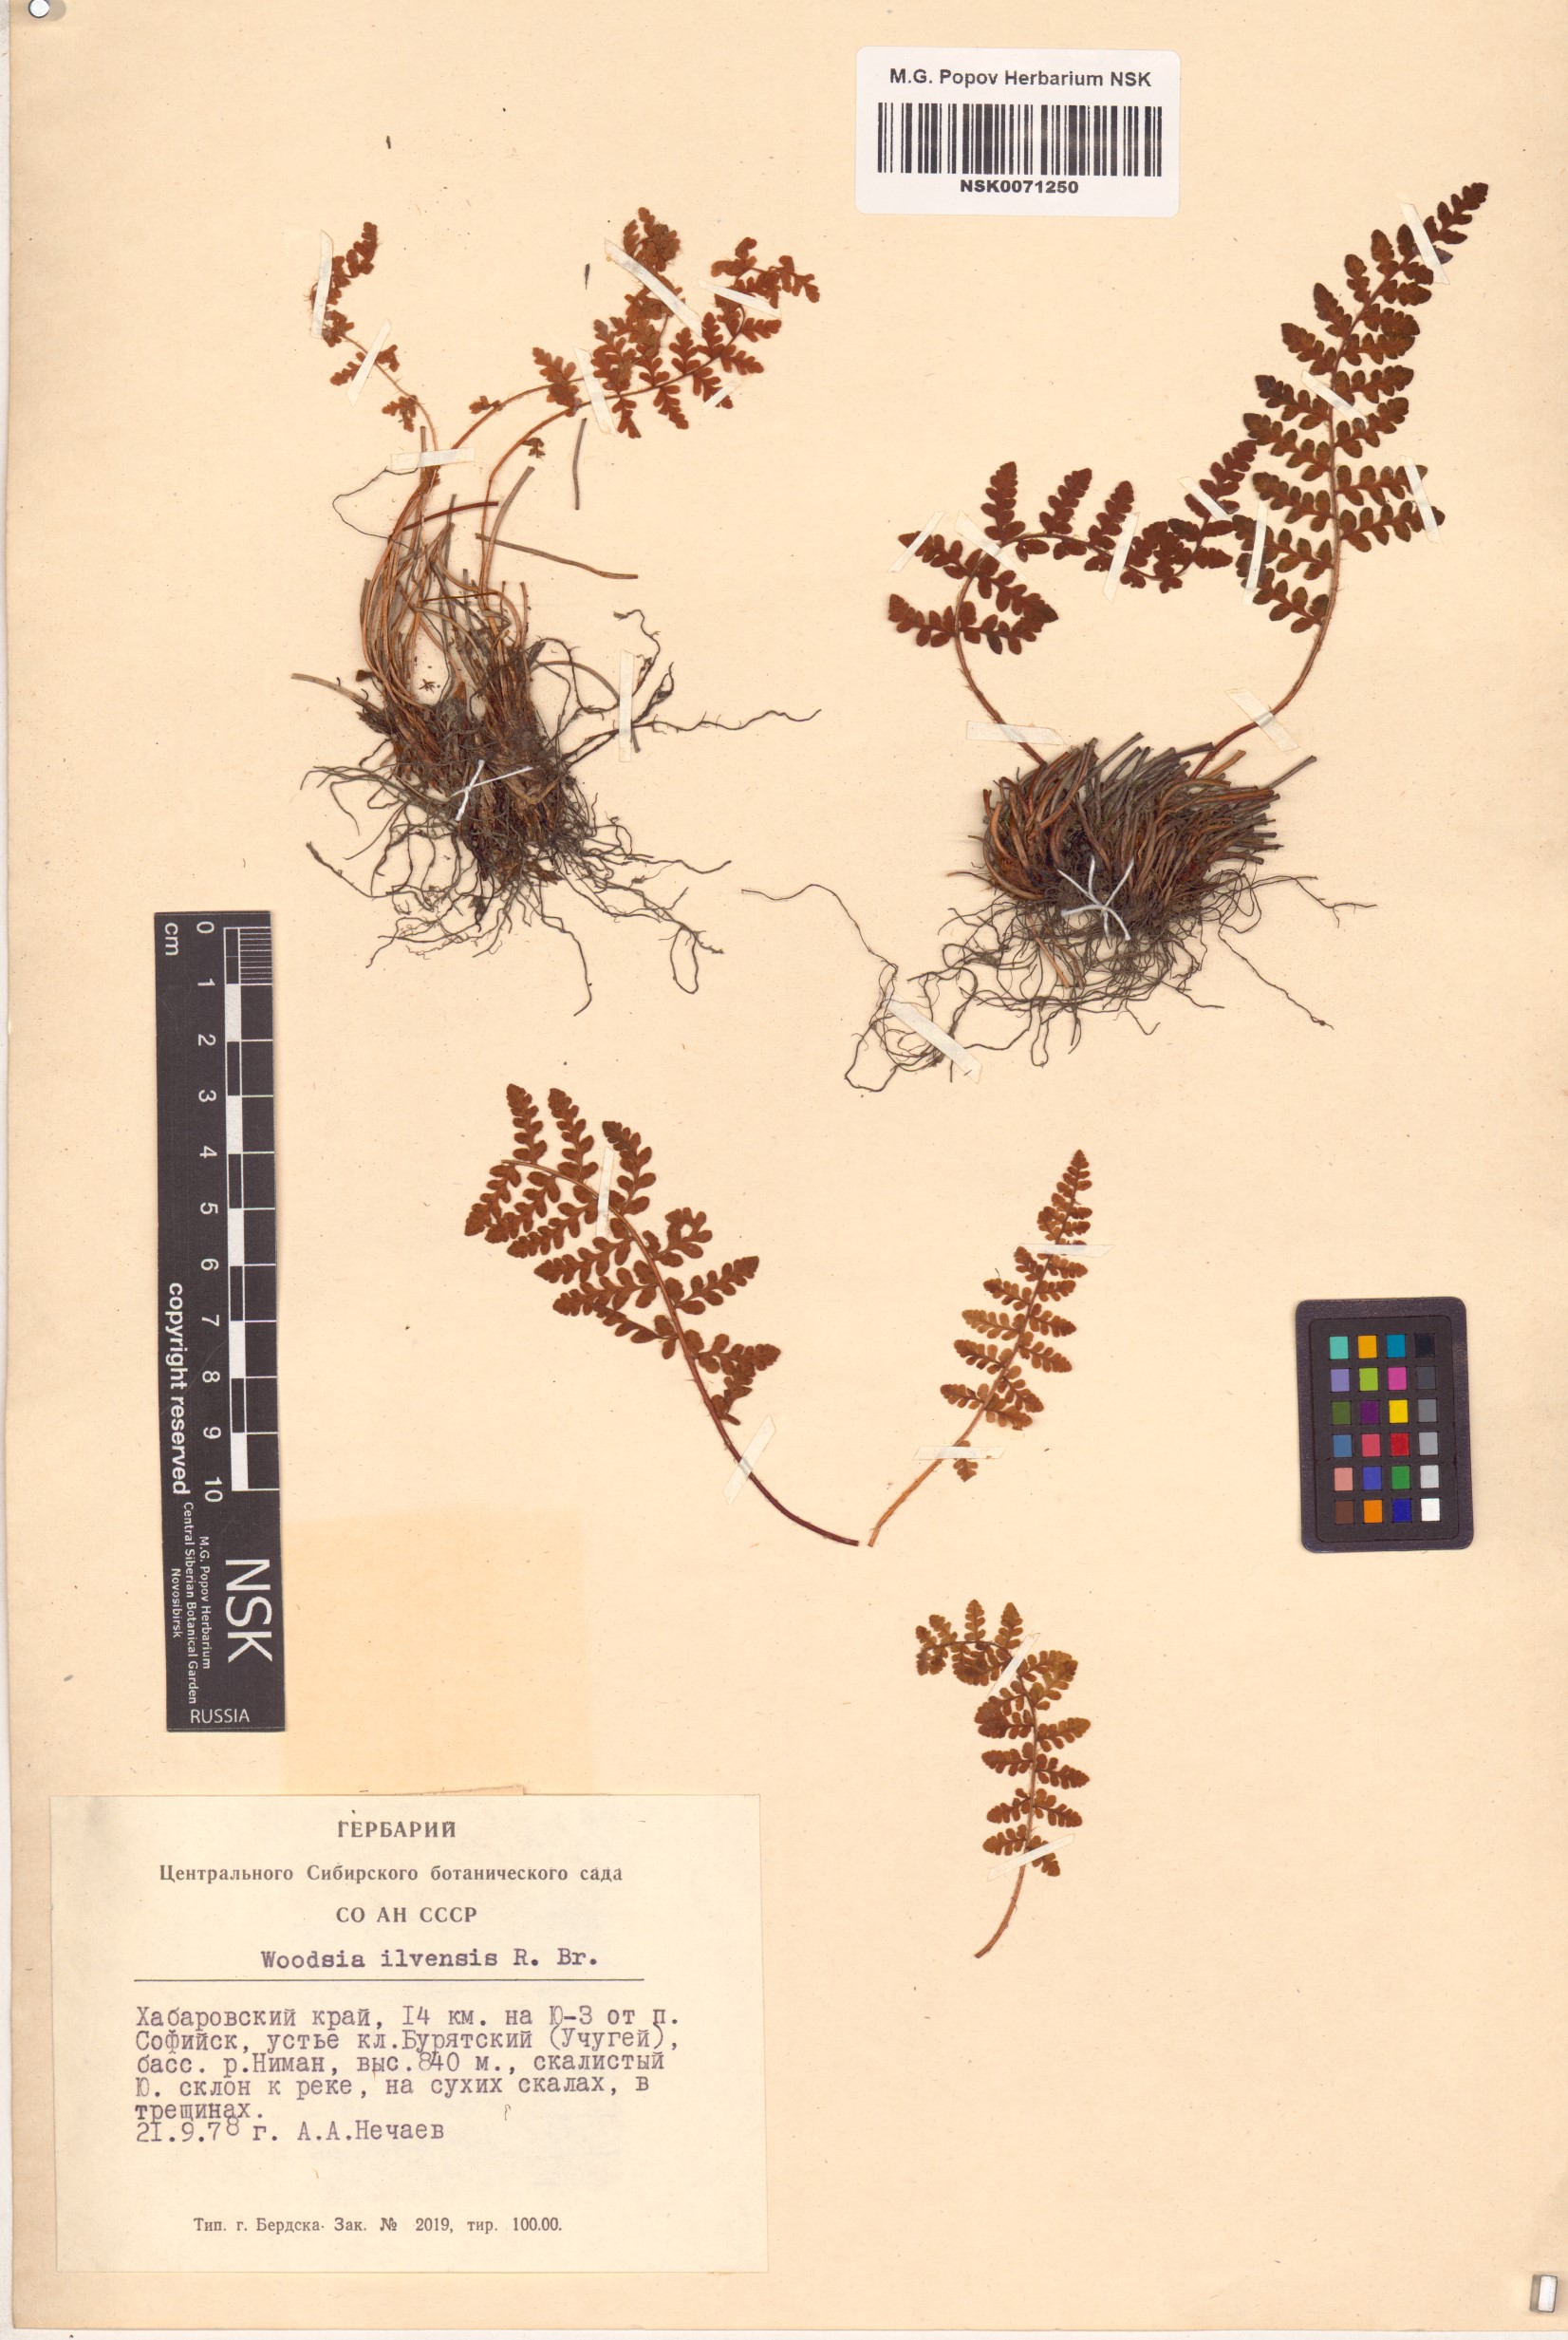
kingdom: Plantae
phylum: Tracheophyta
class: Polypodiopsida
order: Polypodiales
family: Woodsiaceae
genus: Woodsia
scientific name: Woodsia ilvensis
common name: Fragrant woodsia
